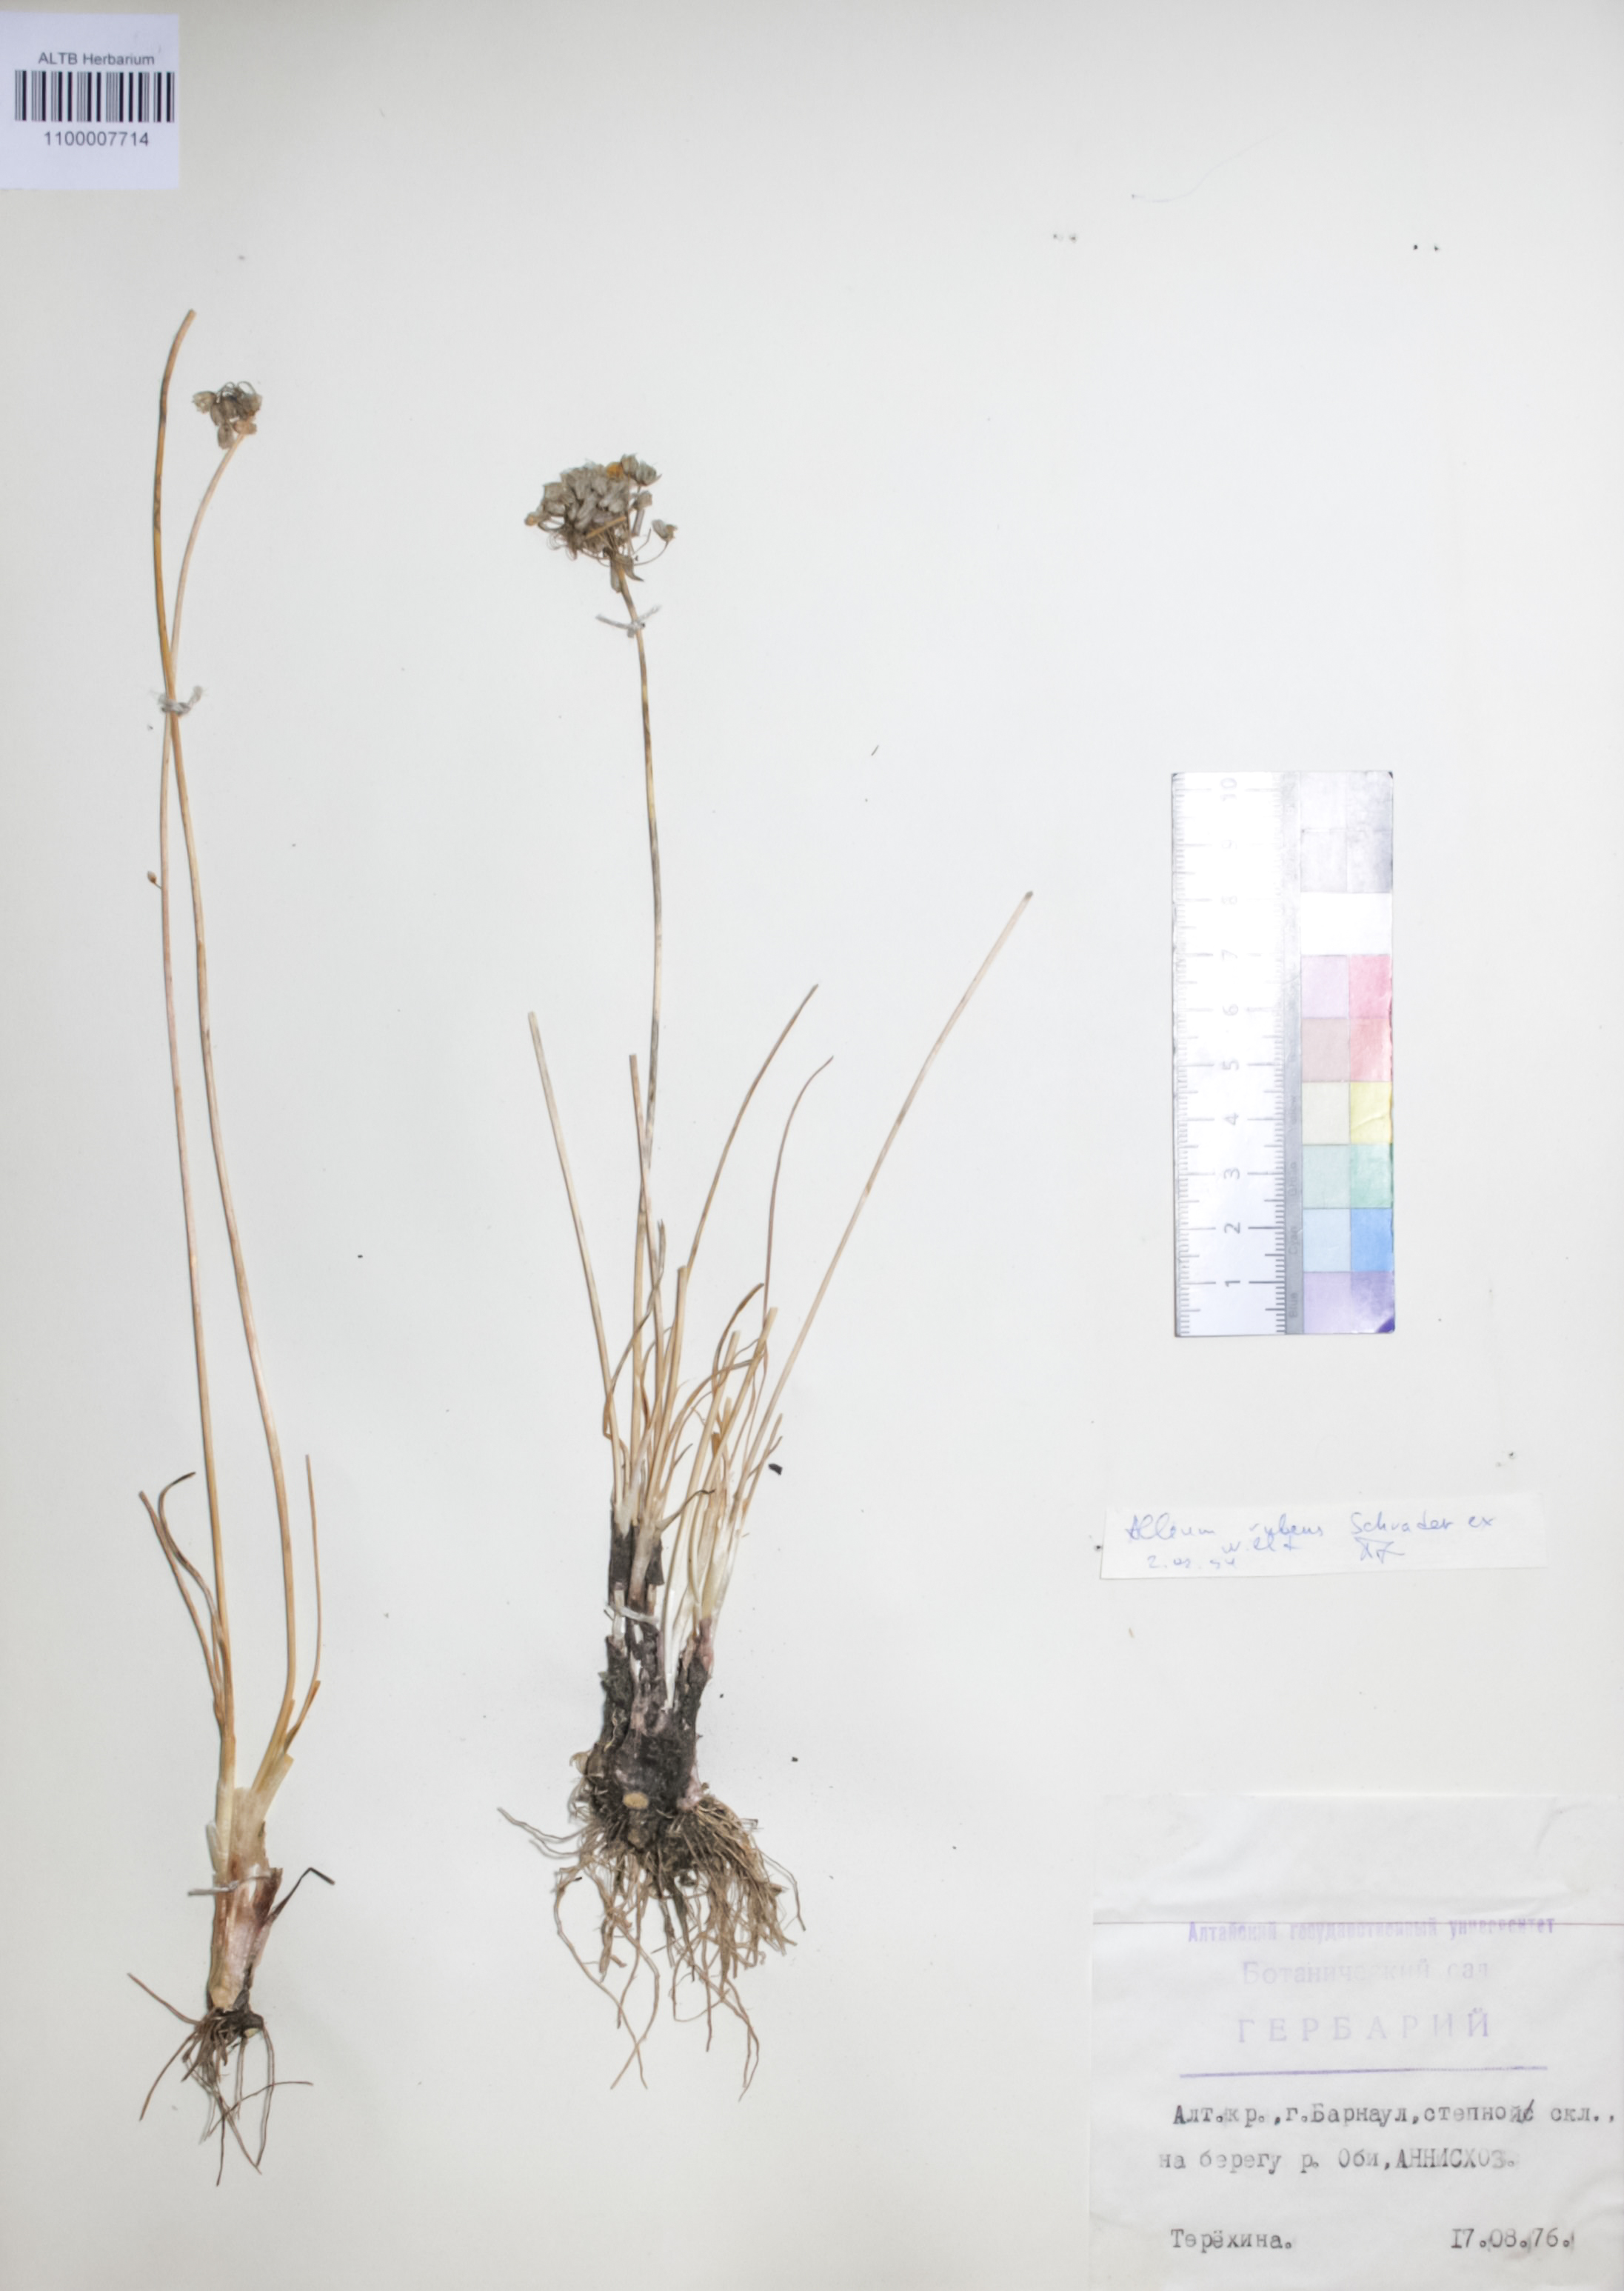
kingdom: Plantae
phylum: Tracheophyta
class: Liliopsida
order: Asparagales
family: Amaryllidaceae
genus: Allium
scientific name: Allium rubens
